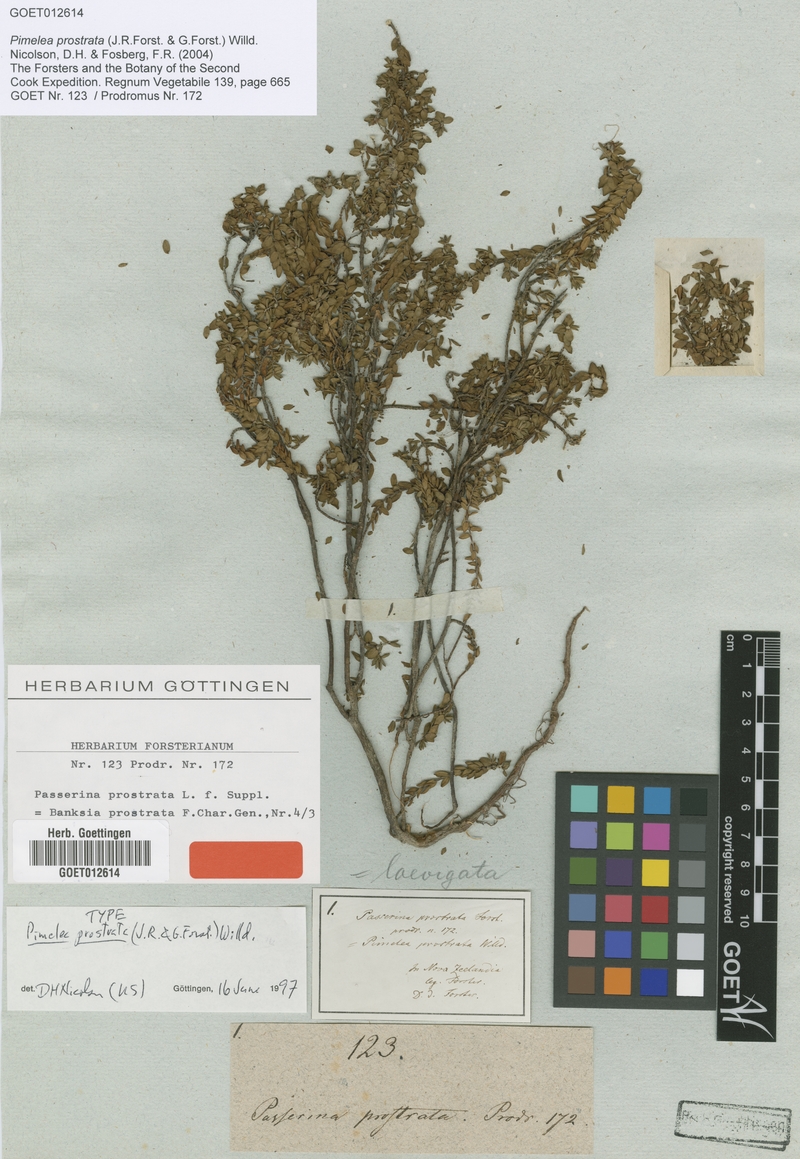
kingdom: Plantae
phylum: Tracheophyta
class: Magnoliopsida
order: Malvales
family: Thymelaeaceae
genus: Pimelea
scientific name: Pimelea prostrata
